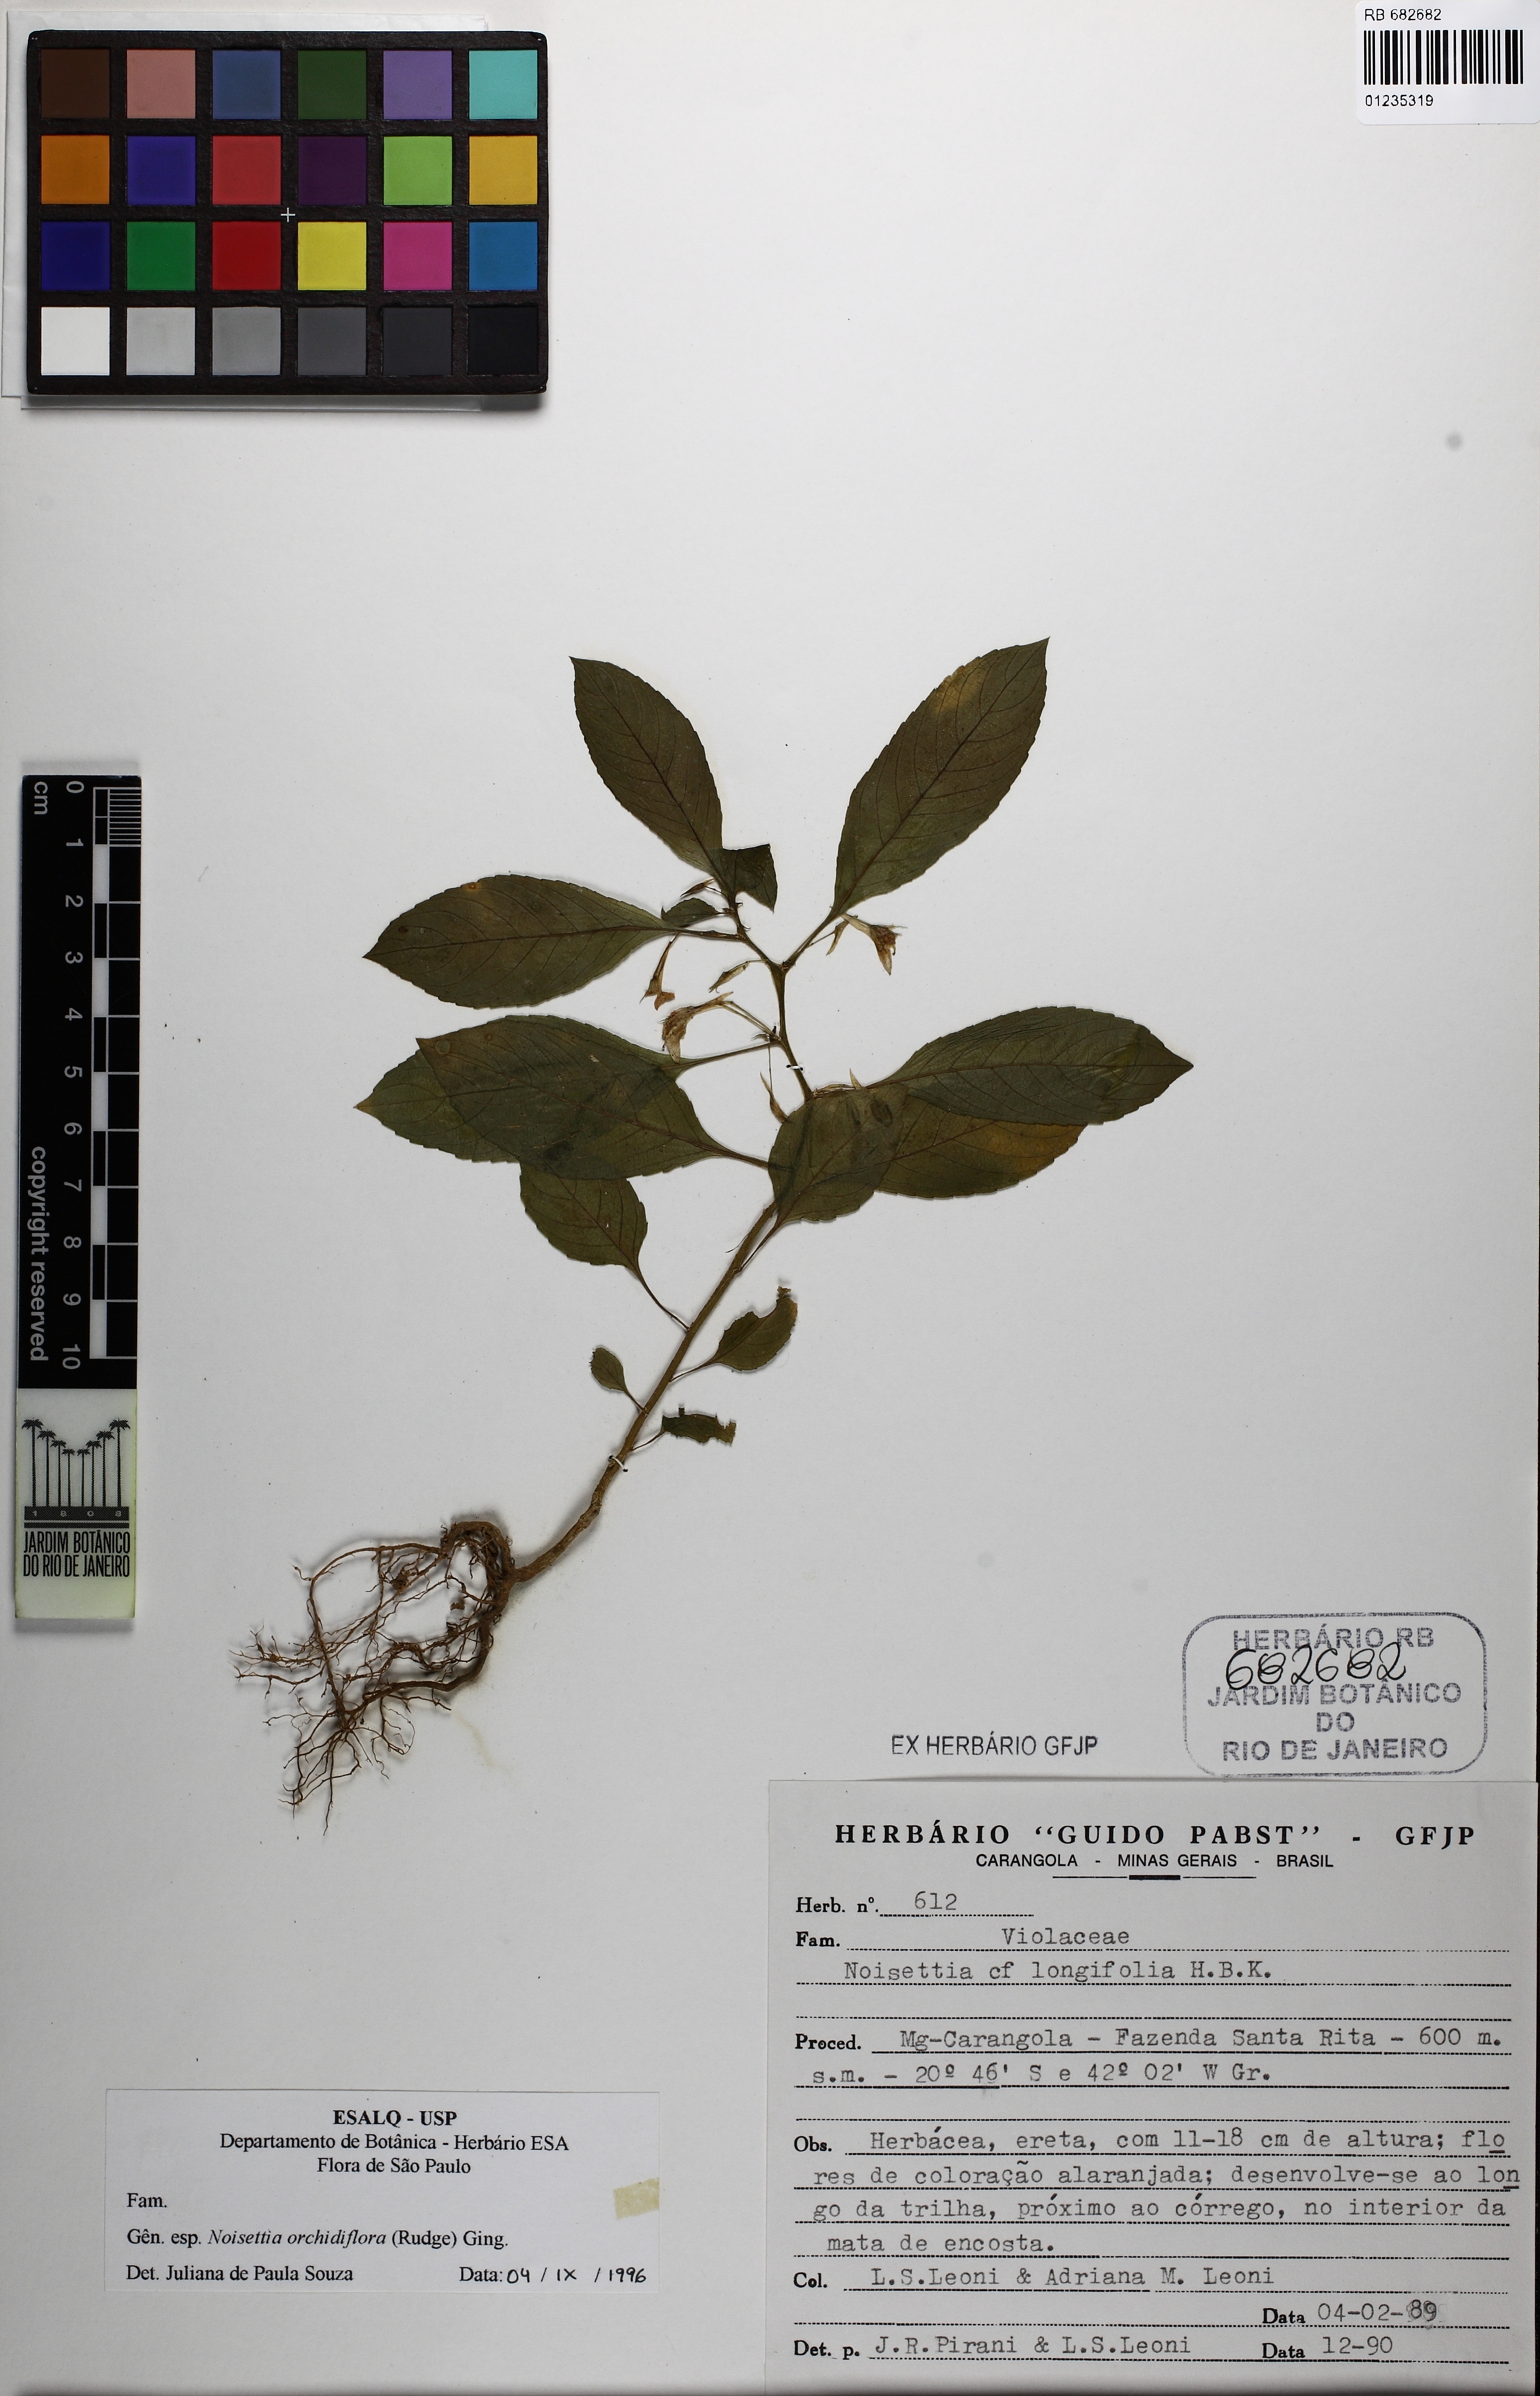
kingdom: Plantae
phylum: Tracheophyta
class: Magnoliopsida
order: Malpighiales
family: Violaceae
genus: Noisettia
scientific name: Noisettia orchidiflora
